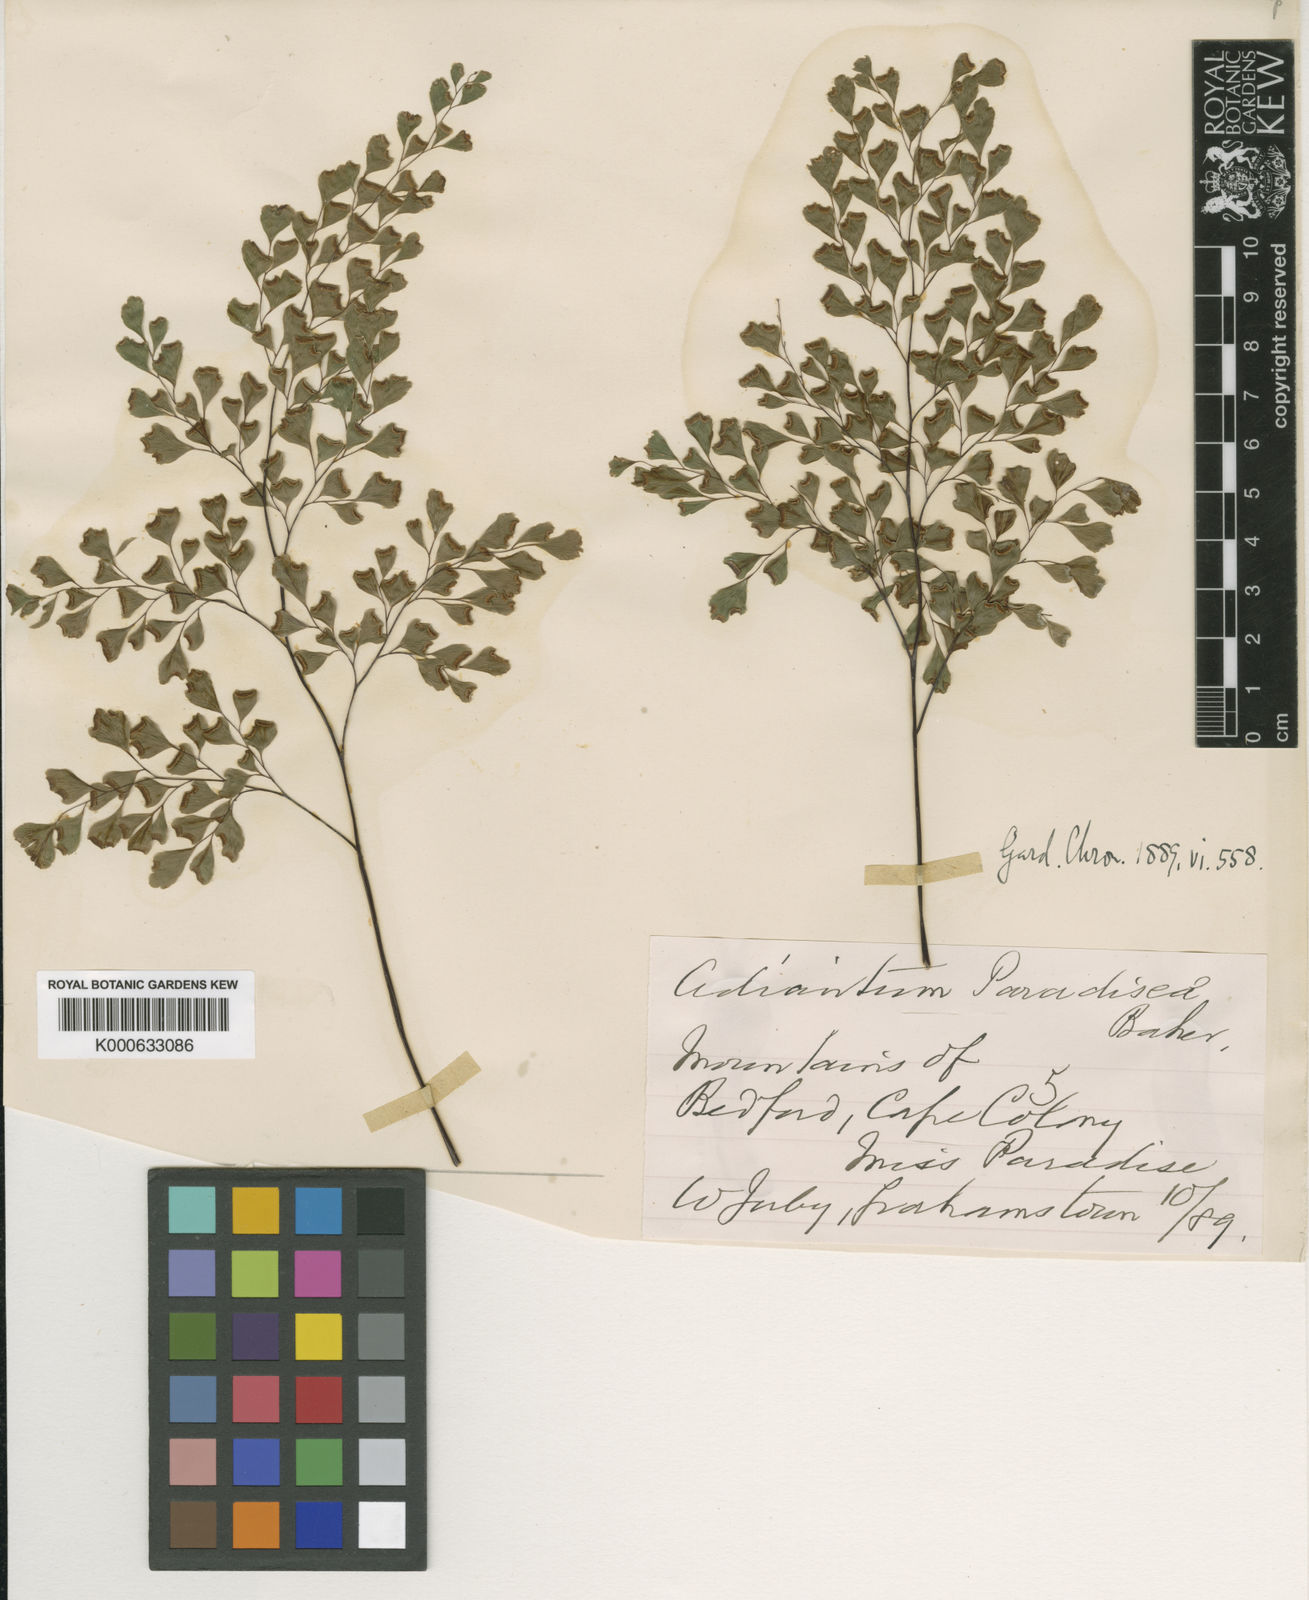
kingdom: Plantae
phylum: Tracheophyta
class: Polypodiopsida
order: Polypodiales
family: Pteridaceae
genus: Adiantum
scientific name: Adiantum capillus-veneris
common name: Maidenhair fern
